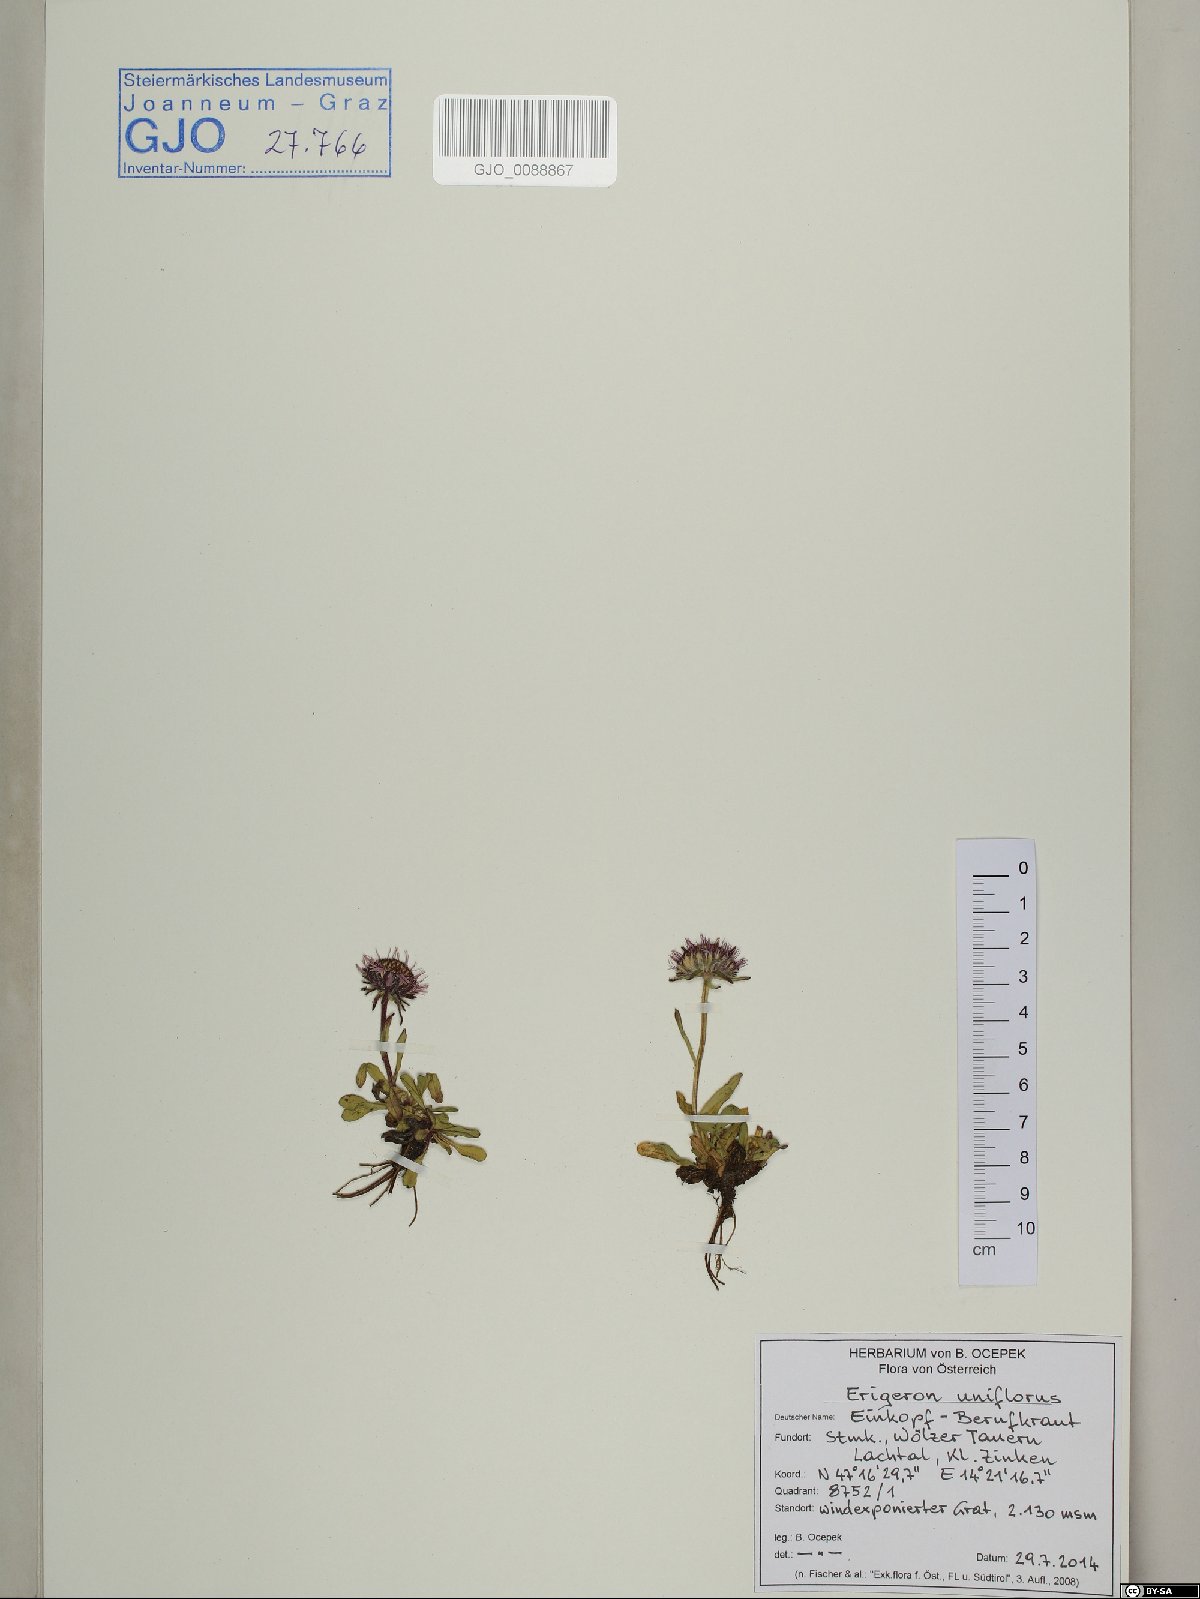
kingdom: Plantae
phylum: Tracheophyta
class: Magnoliopsida
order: Asterales
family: Asteraceae
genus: Erigeron
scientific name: Erigeron uniflorus
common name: Northern daisy
